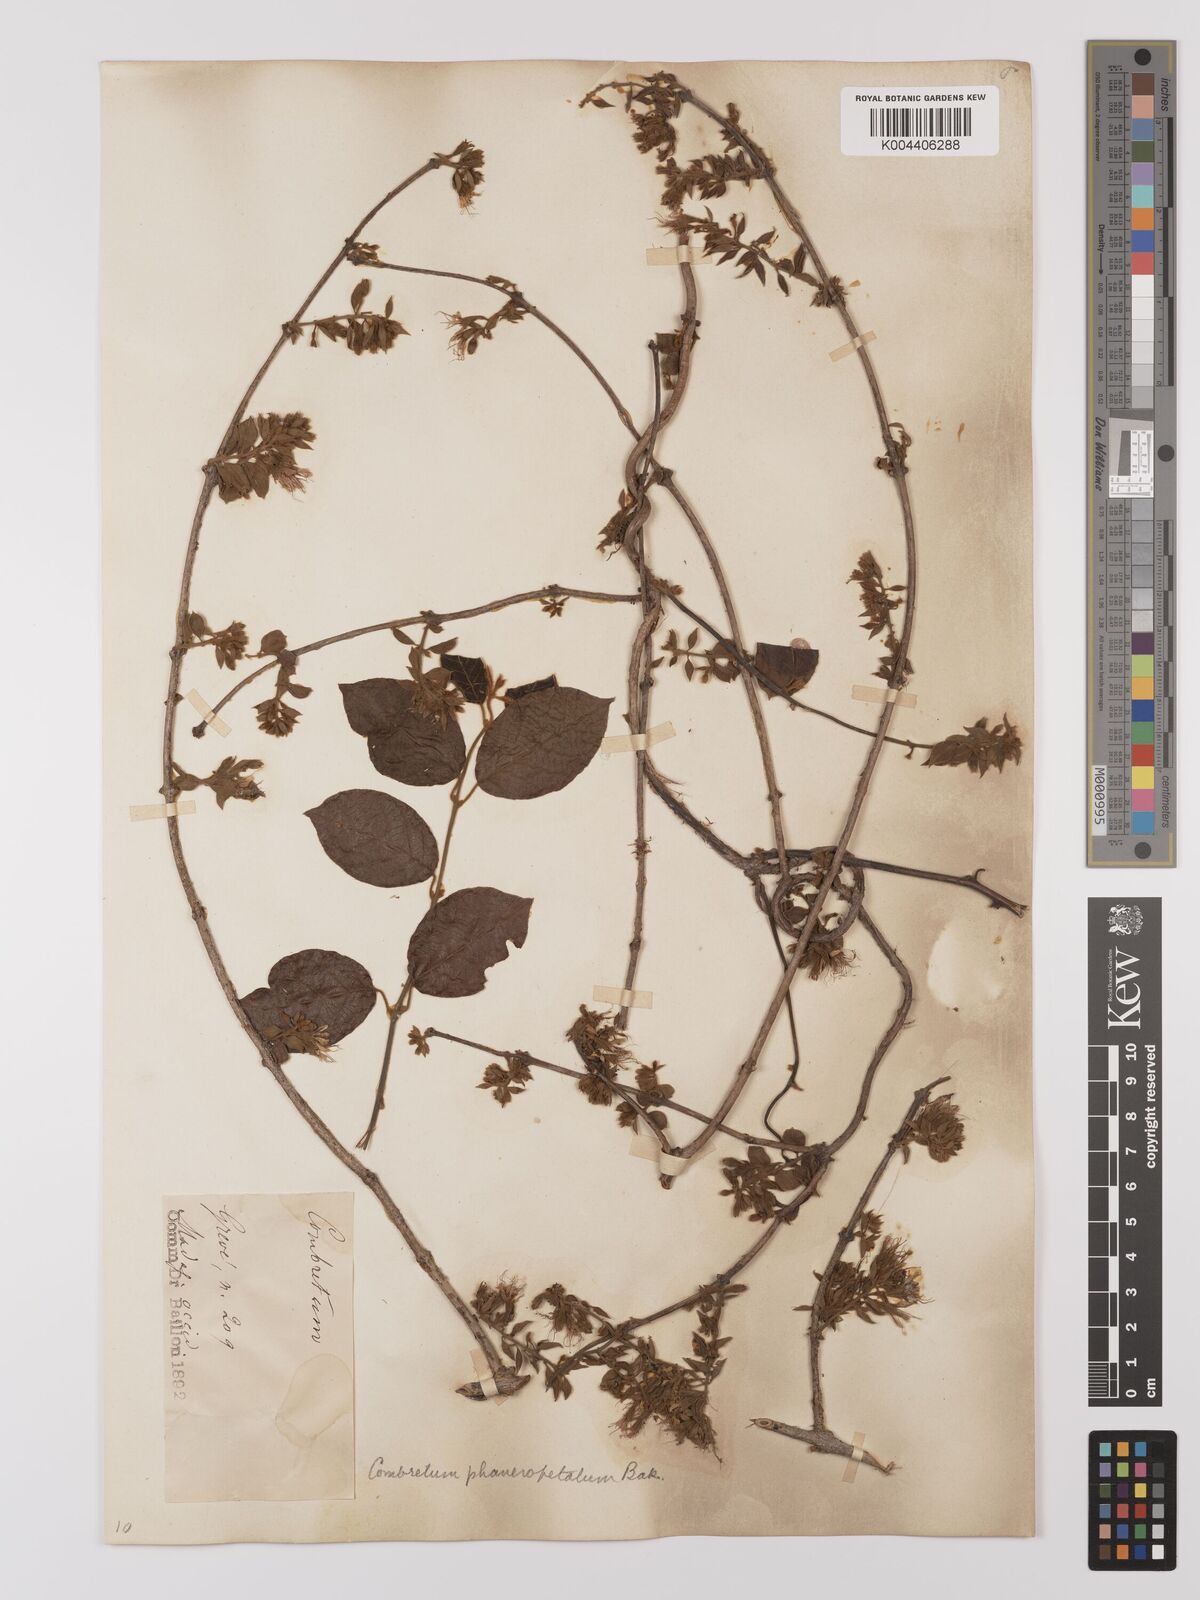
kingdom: Plantae
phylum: Tracheophyta
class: Magnoliopsida
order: Myrtales
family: Combretaceae
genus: Combretum
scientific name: Combretum albiflorum
